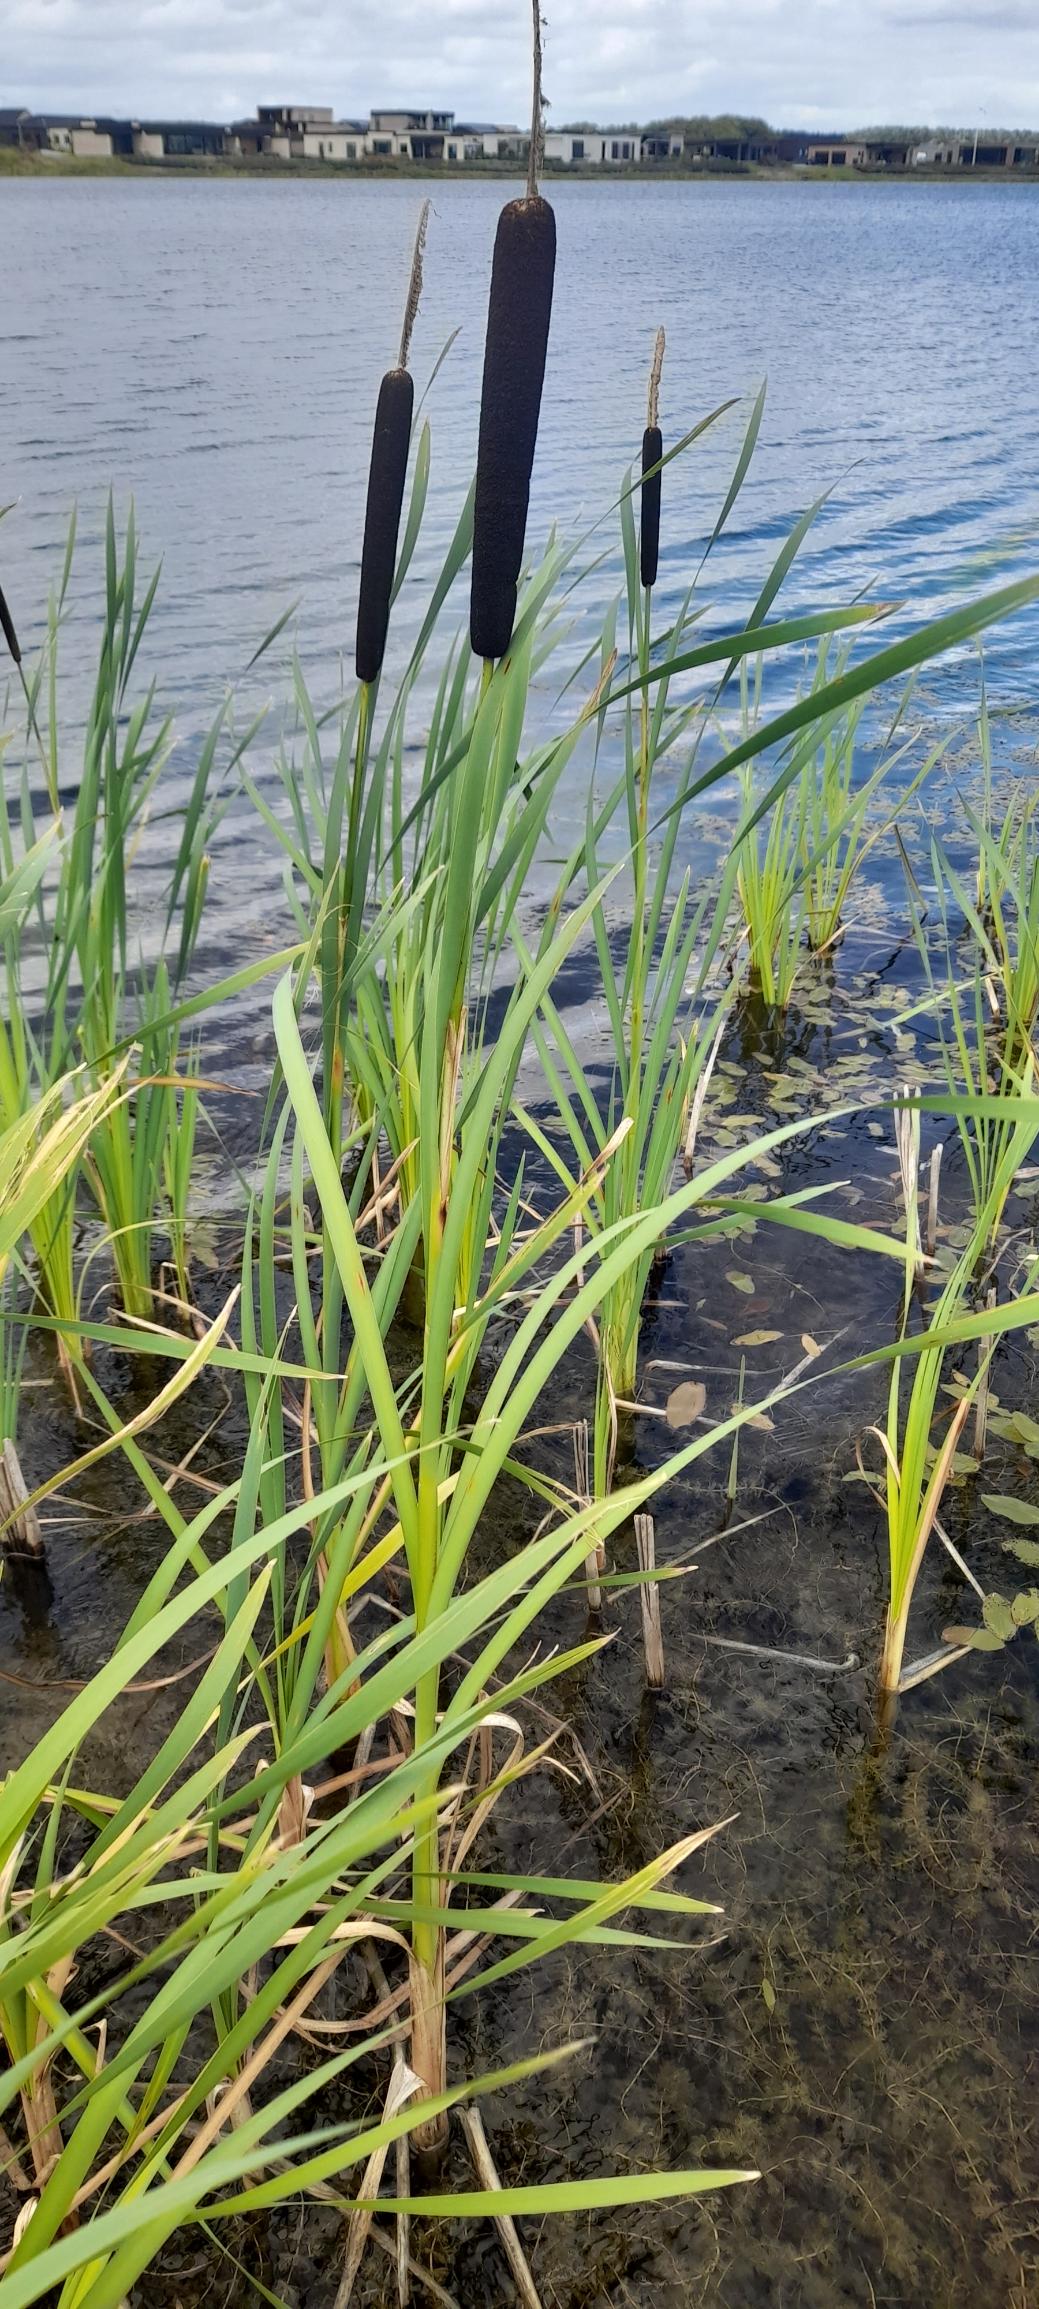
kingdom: Plantae
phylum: Tracheophyta
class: Liliopsida
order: Poales
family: Typhaceae
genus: Typha
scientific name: Typha latifolia
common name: Bredbladet dunhammer
